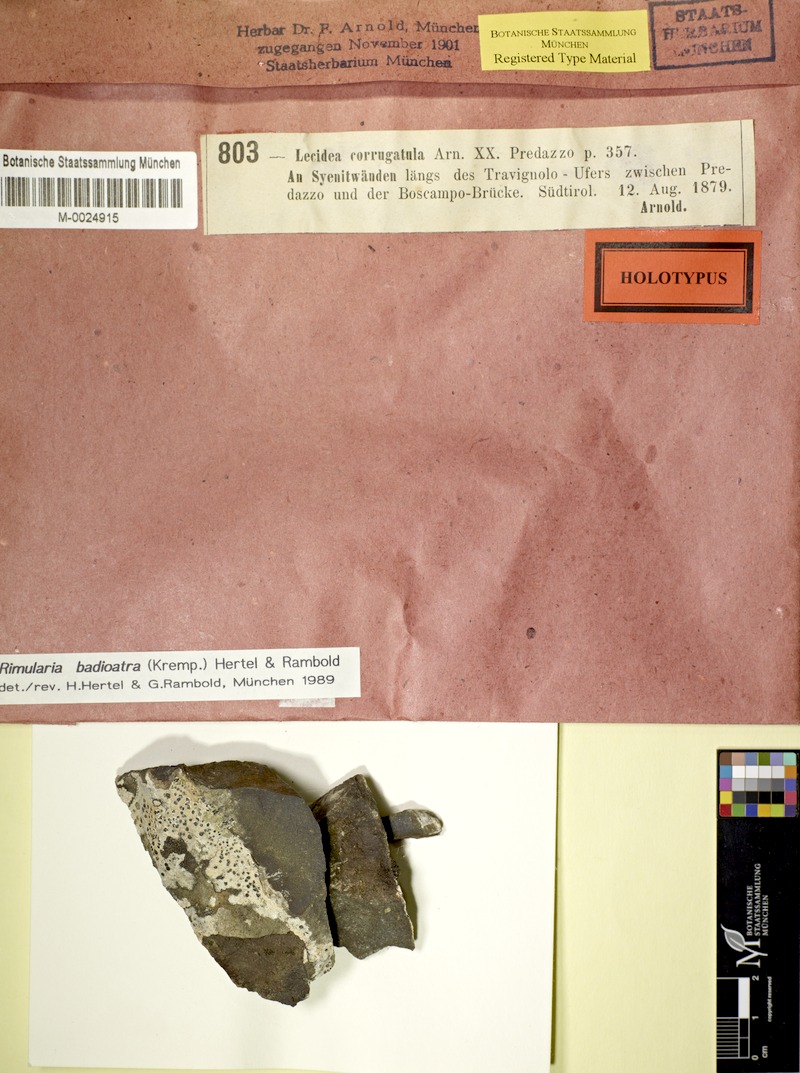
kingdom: Fungi
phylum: Ascomycota
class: Lecanoromycetes
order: Baeomycetales
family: Trapeliaceae
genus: Rimularia
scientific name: Rimularia badioatra
